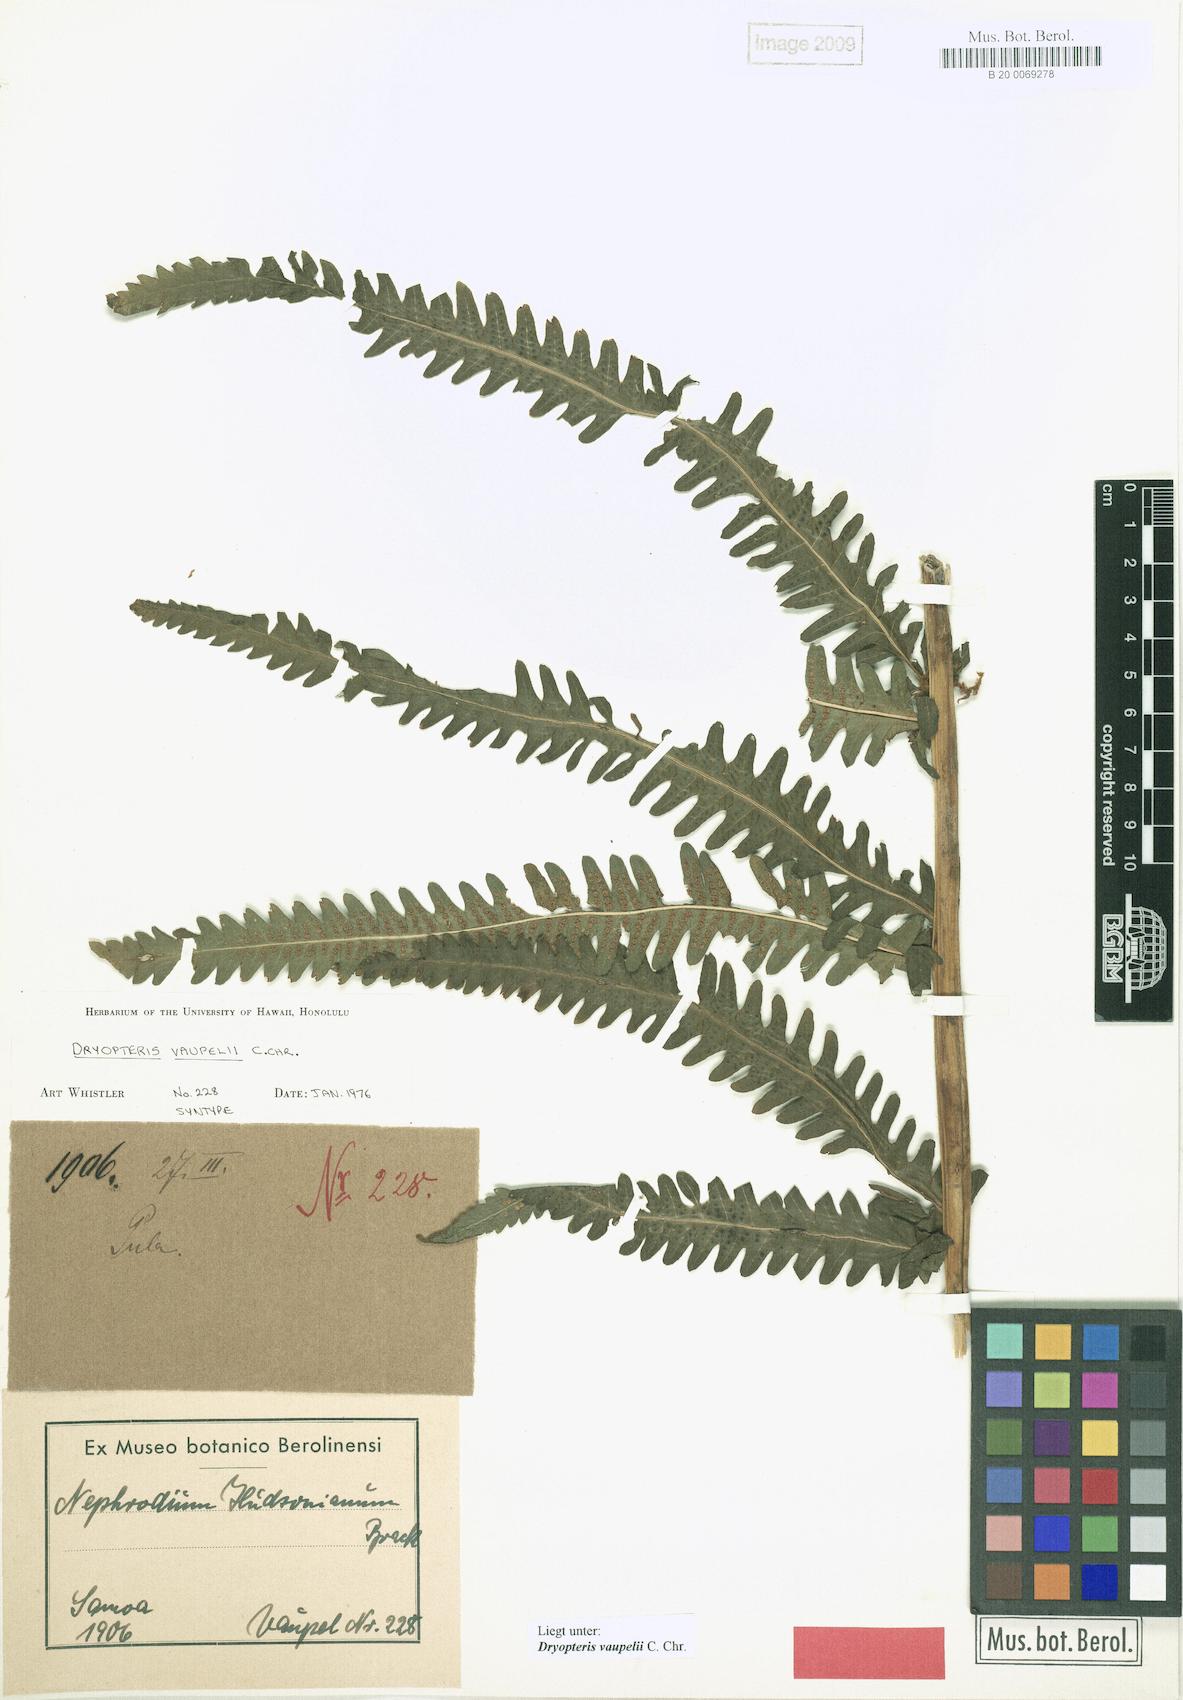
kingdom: Plantae
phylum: Tracheophyta
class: Polypodiopsida
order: Polypodiales
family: Thelypteridaceae
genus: Reholttumia
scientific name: Reholttumia vaupelii
